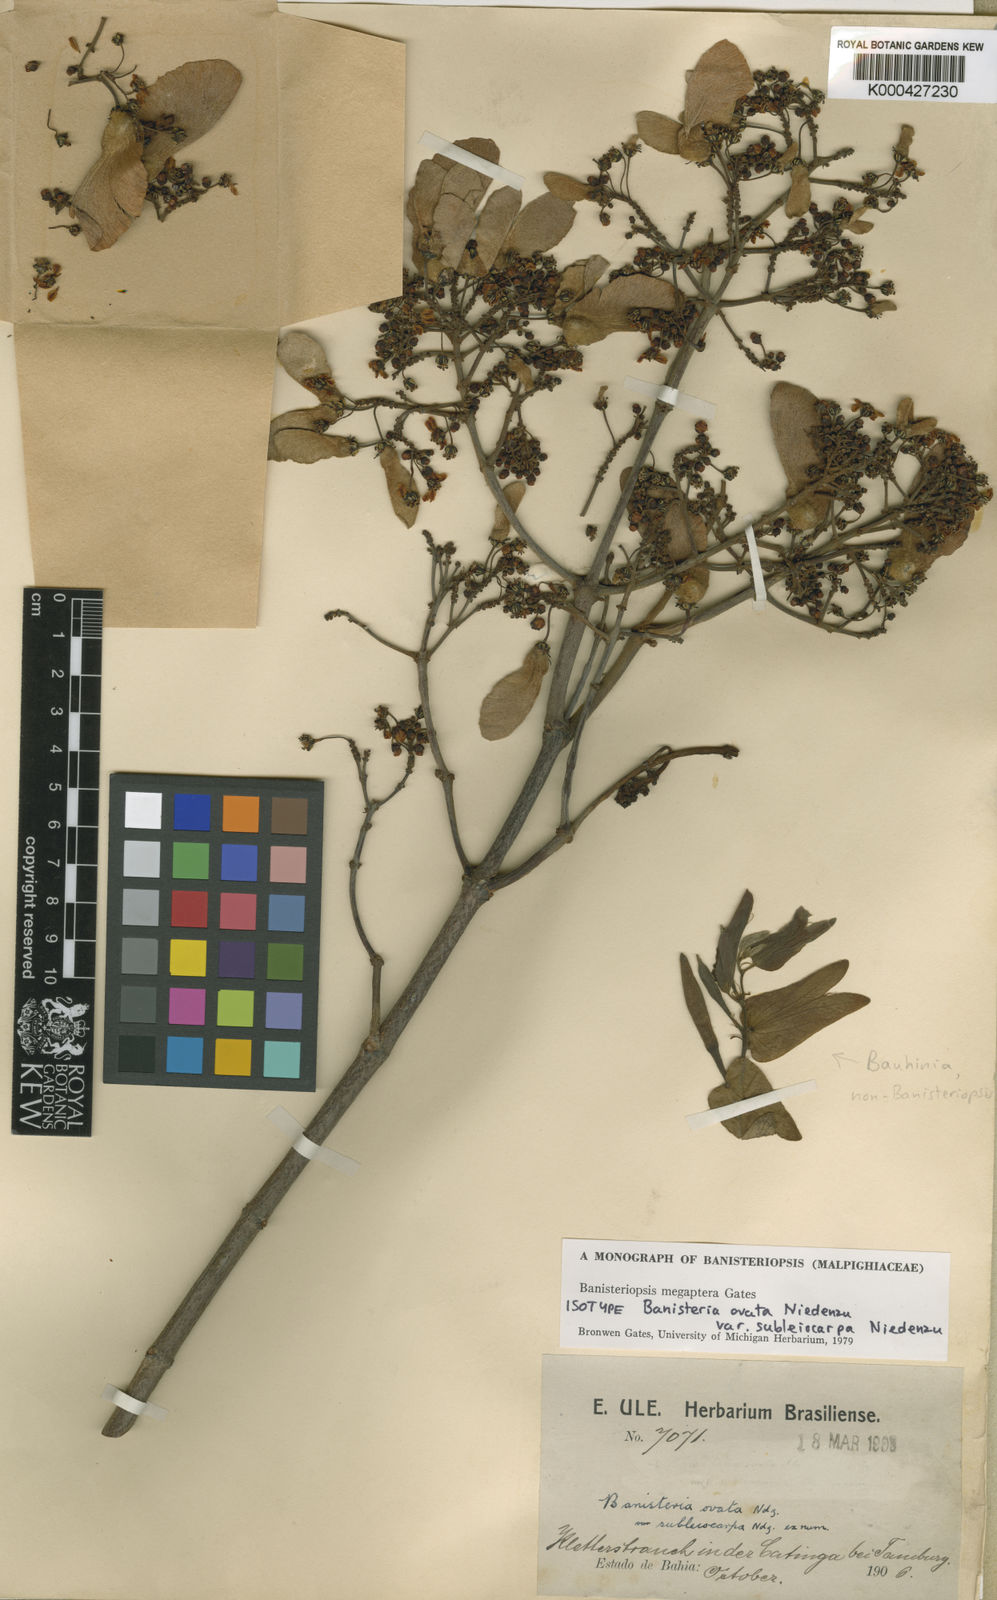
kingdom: Plantae
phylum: Tracheophyta
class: Magnoliopsida
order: Malpighiales
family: Malpighiaceae
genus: Bronwenia
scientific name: Bronwenia megaptera
